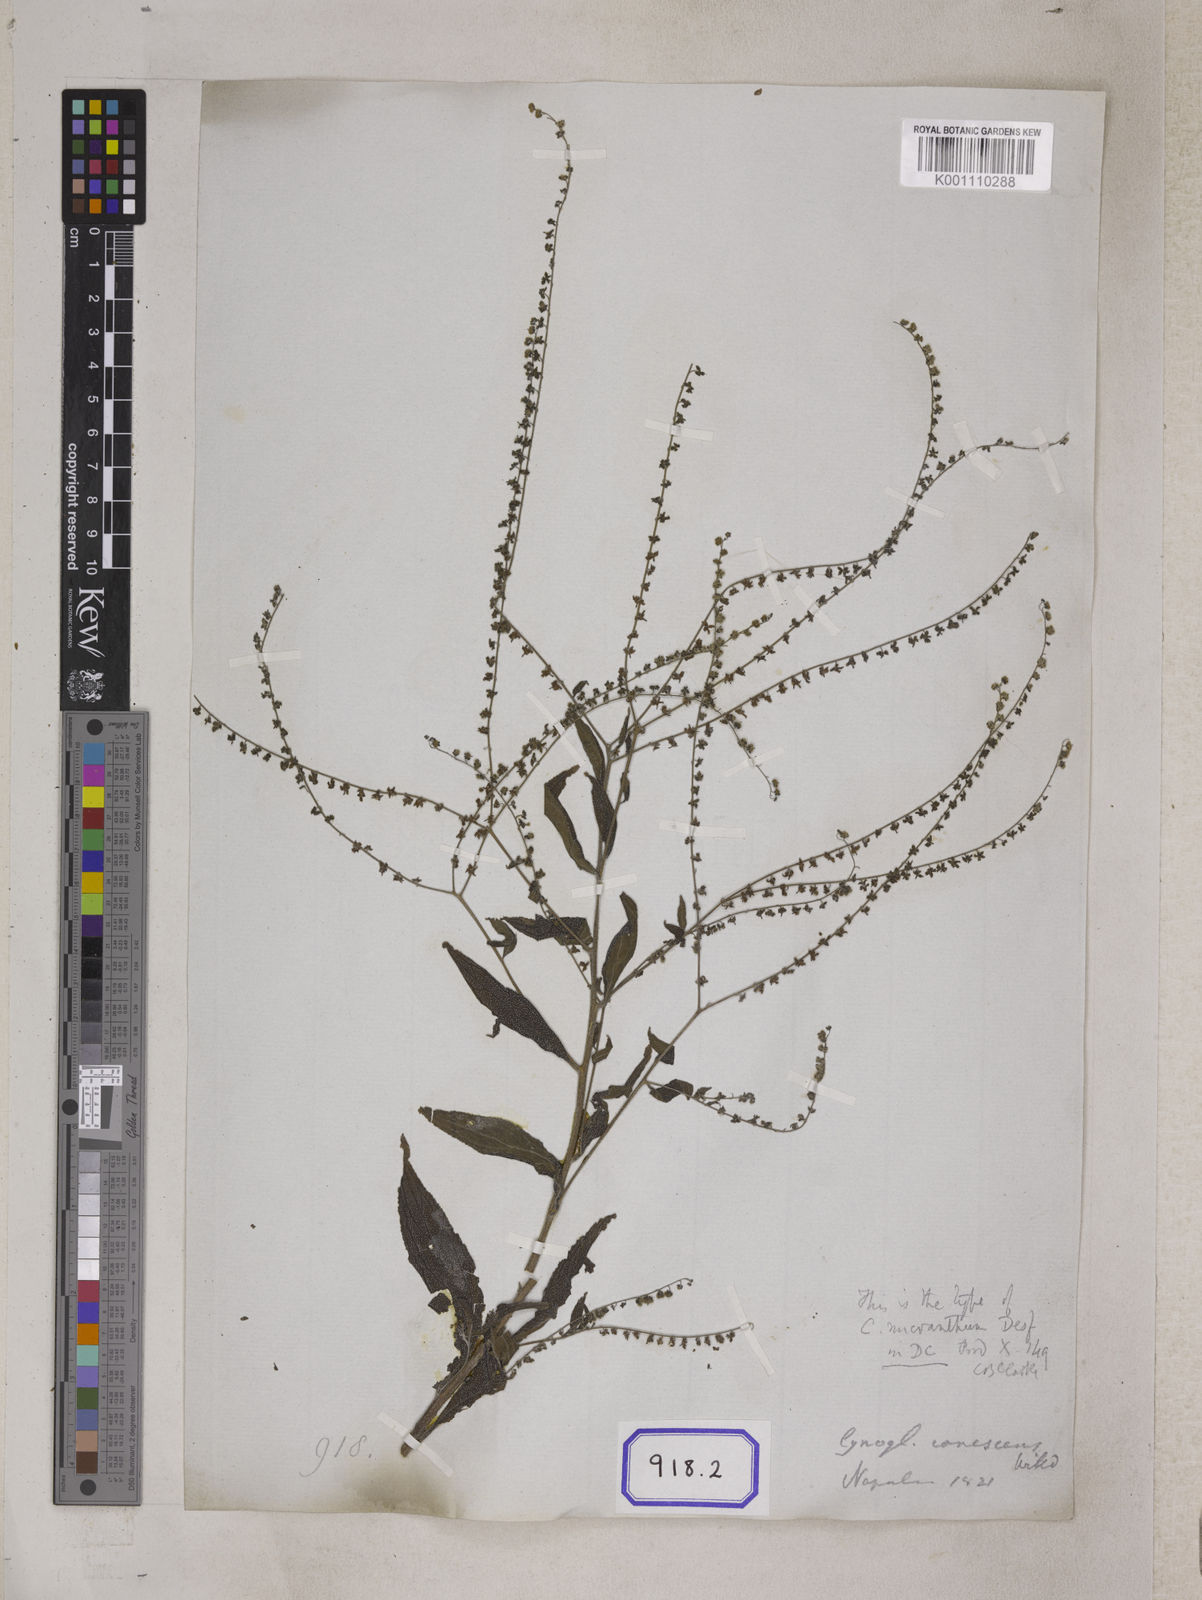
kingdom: Plantae
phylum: Tracheophyta
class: Magnoliopsida
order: Boraginales
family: Boraginaceae
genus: Paracynoglossum
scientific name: Paracynoglossum lanceolatum
